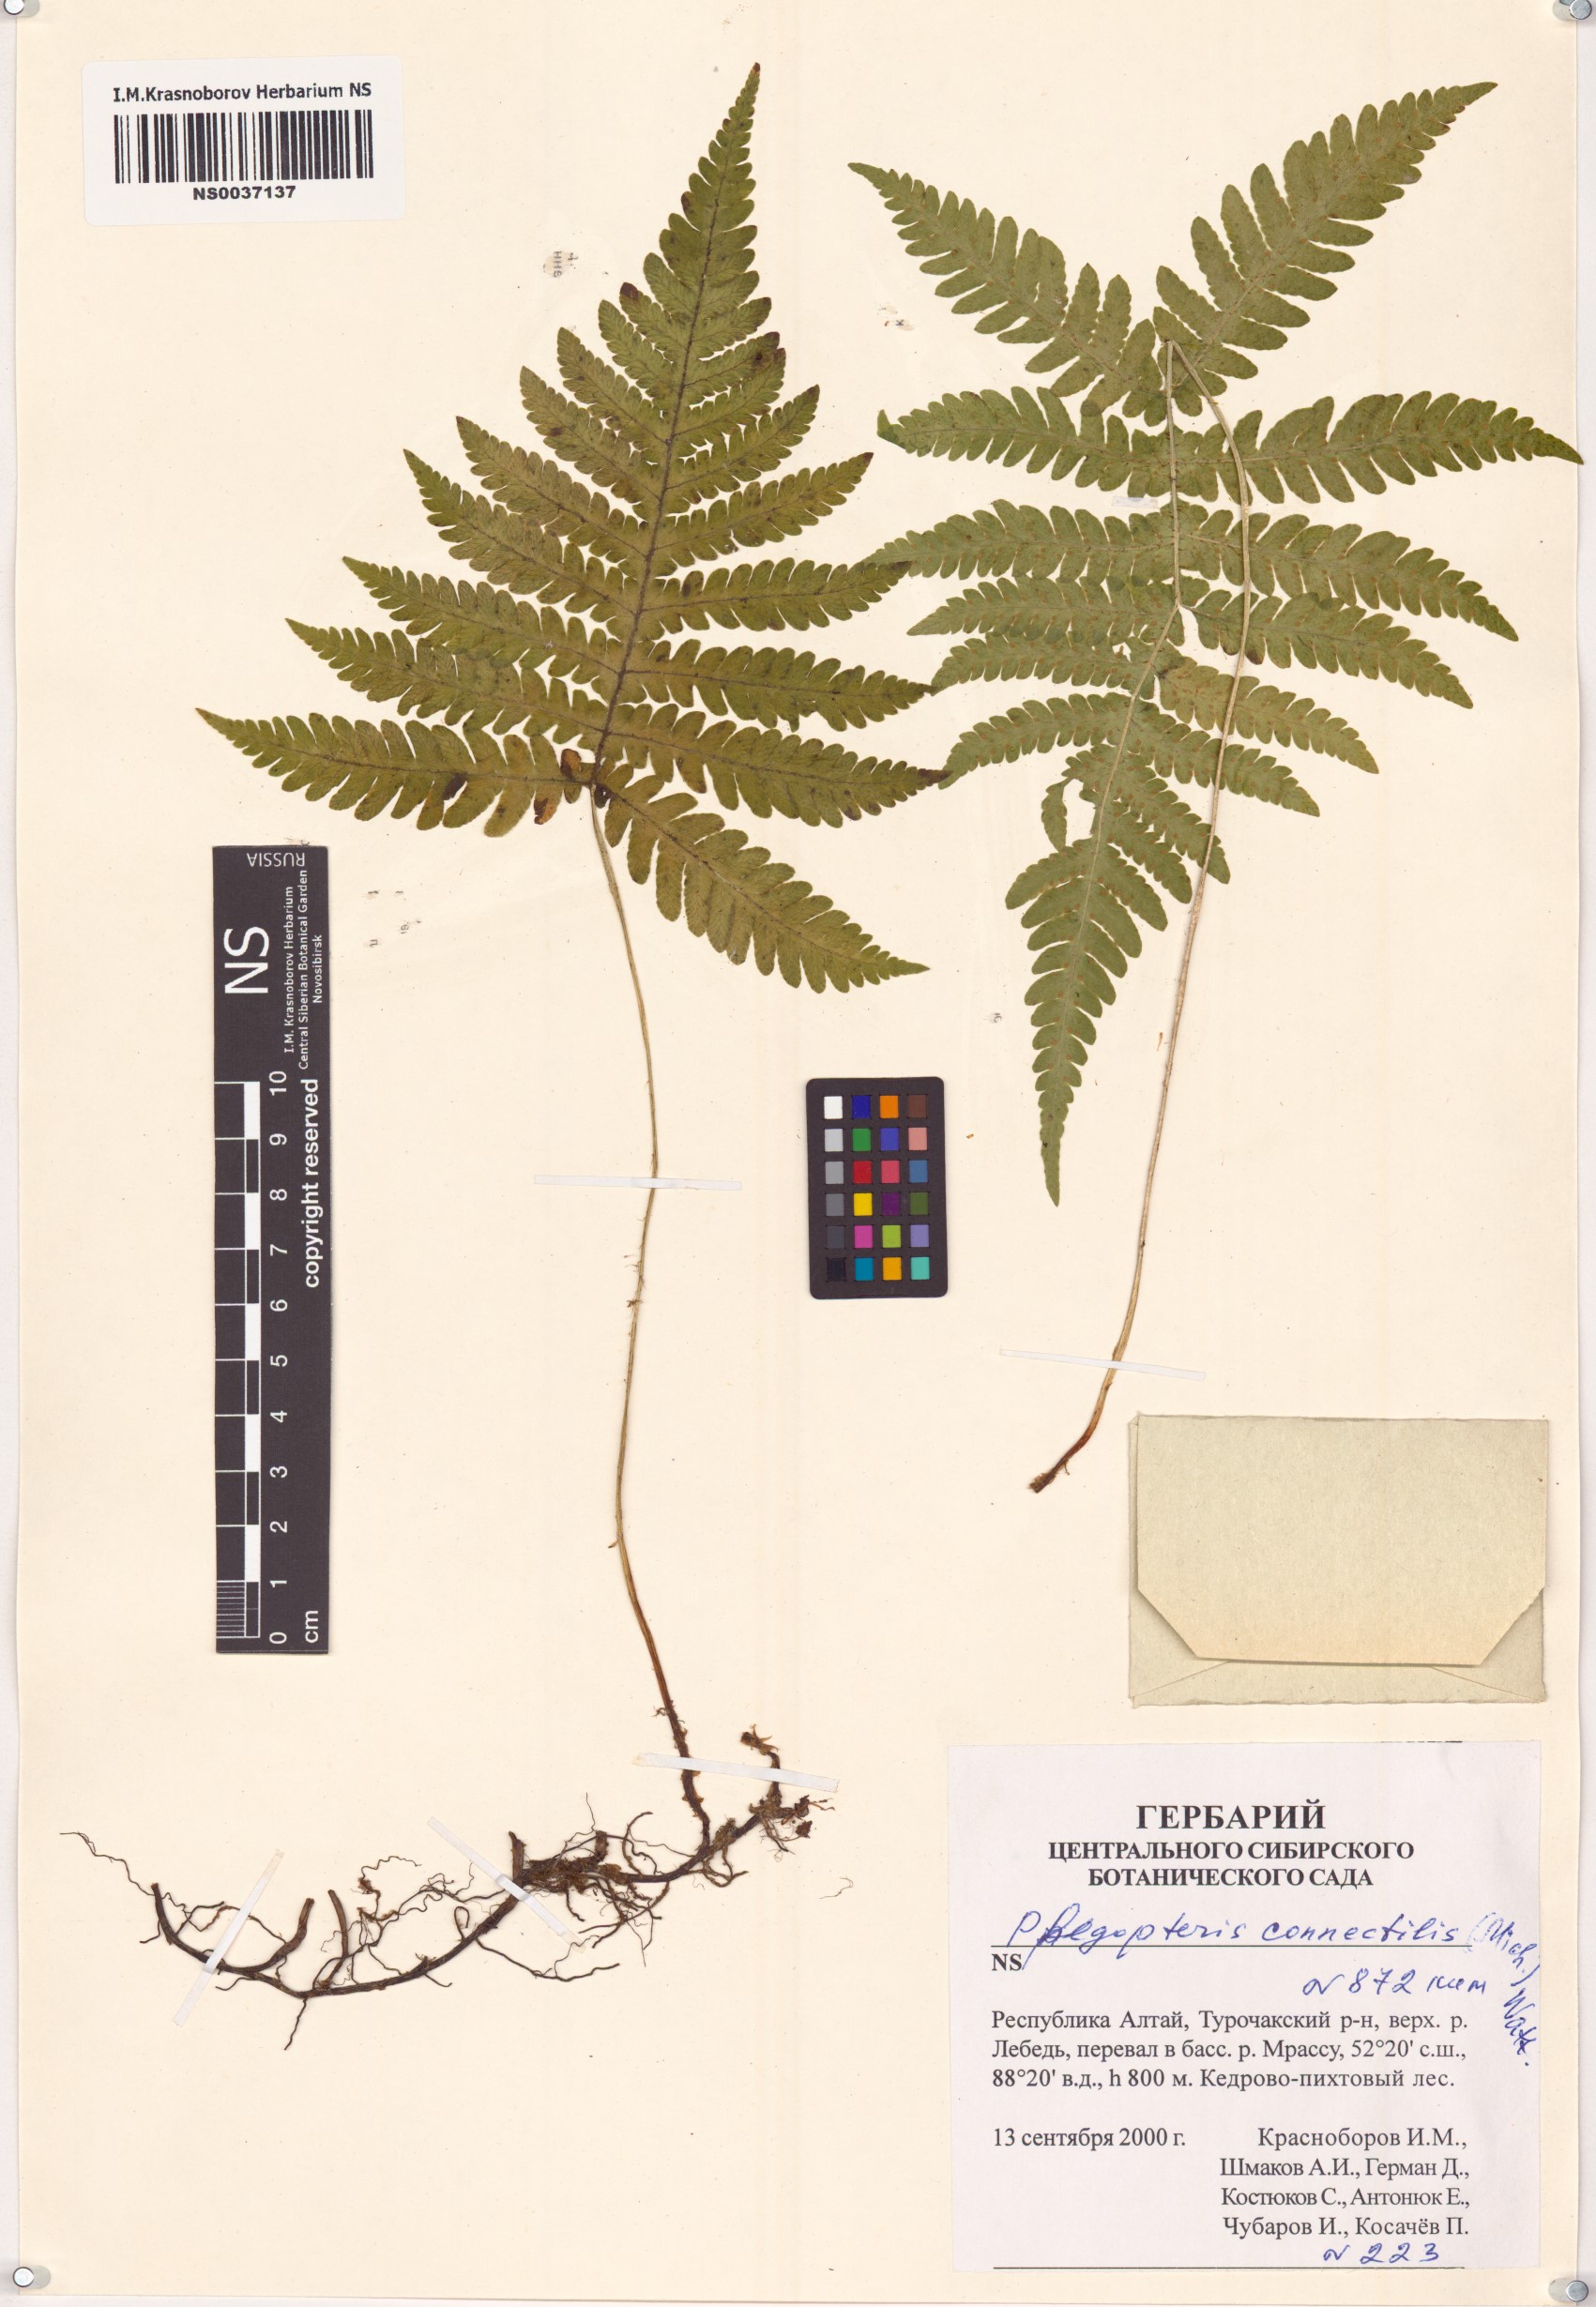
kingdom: Plantae
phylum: Tracheophyta
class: Polypodiopsida
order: Polypodiales
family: Thelypteridaceae
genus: Phegopteris
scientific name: Phegopteris connectilis
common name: Beech fern
